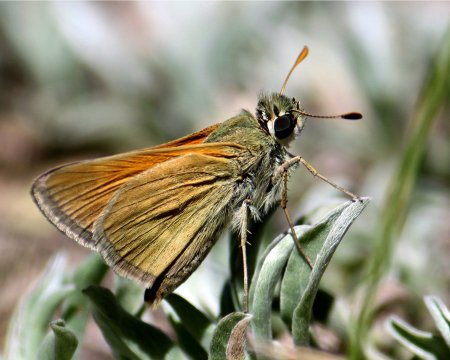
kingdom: Animalia
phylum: Arthropoda
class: Insecta
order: Lepidoptera
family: Hesperiidae
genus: Polites
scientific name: Polites themistocles
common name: Tawny-edged Skipper
